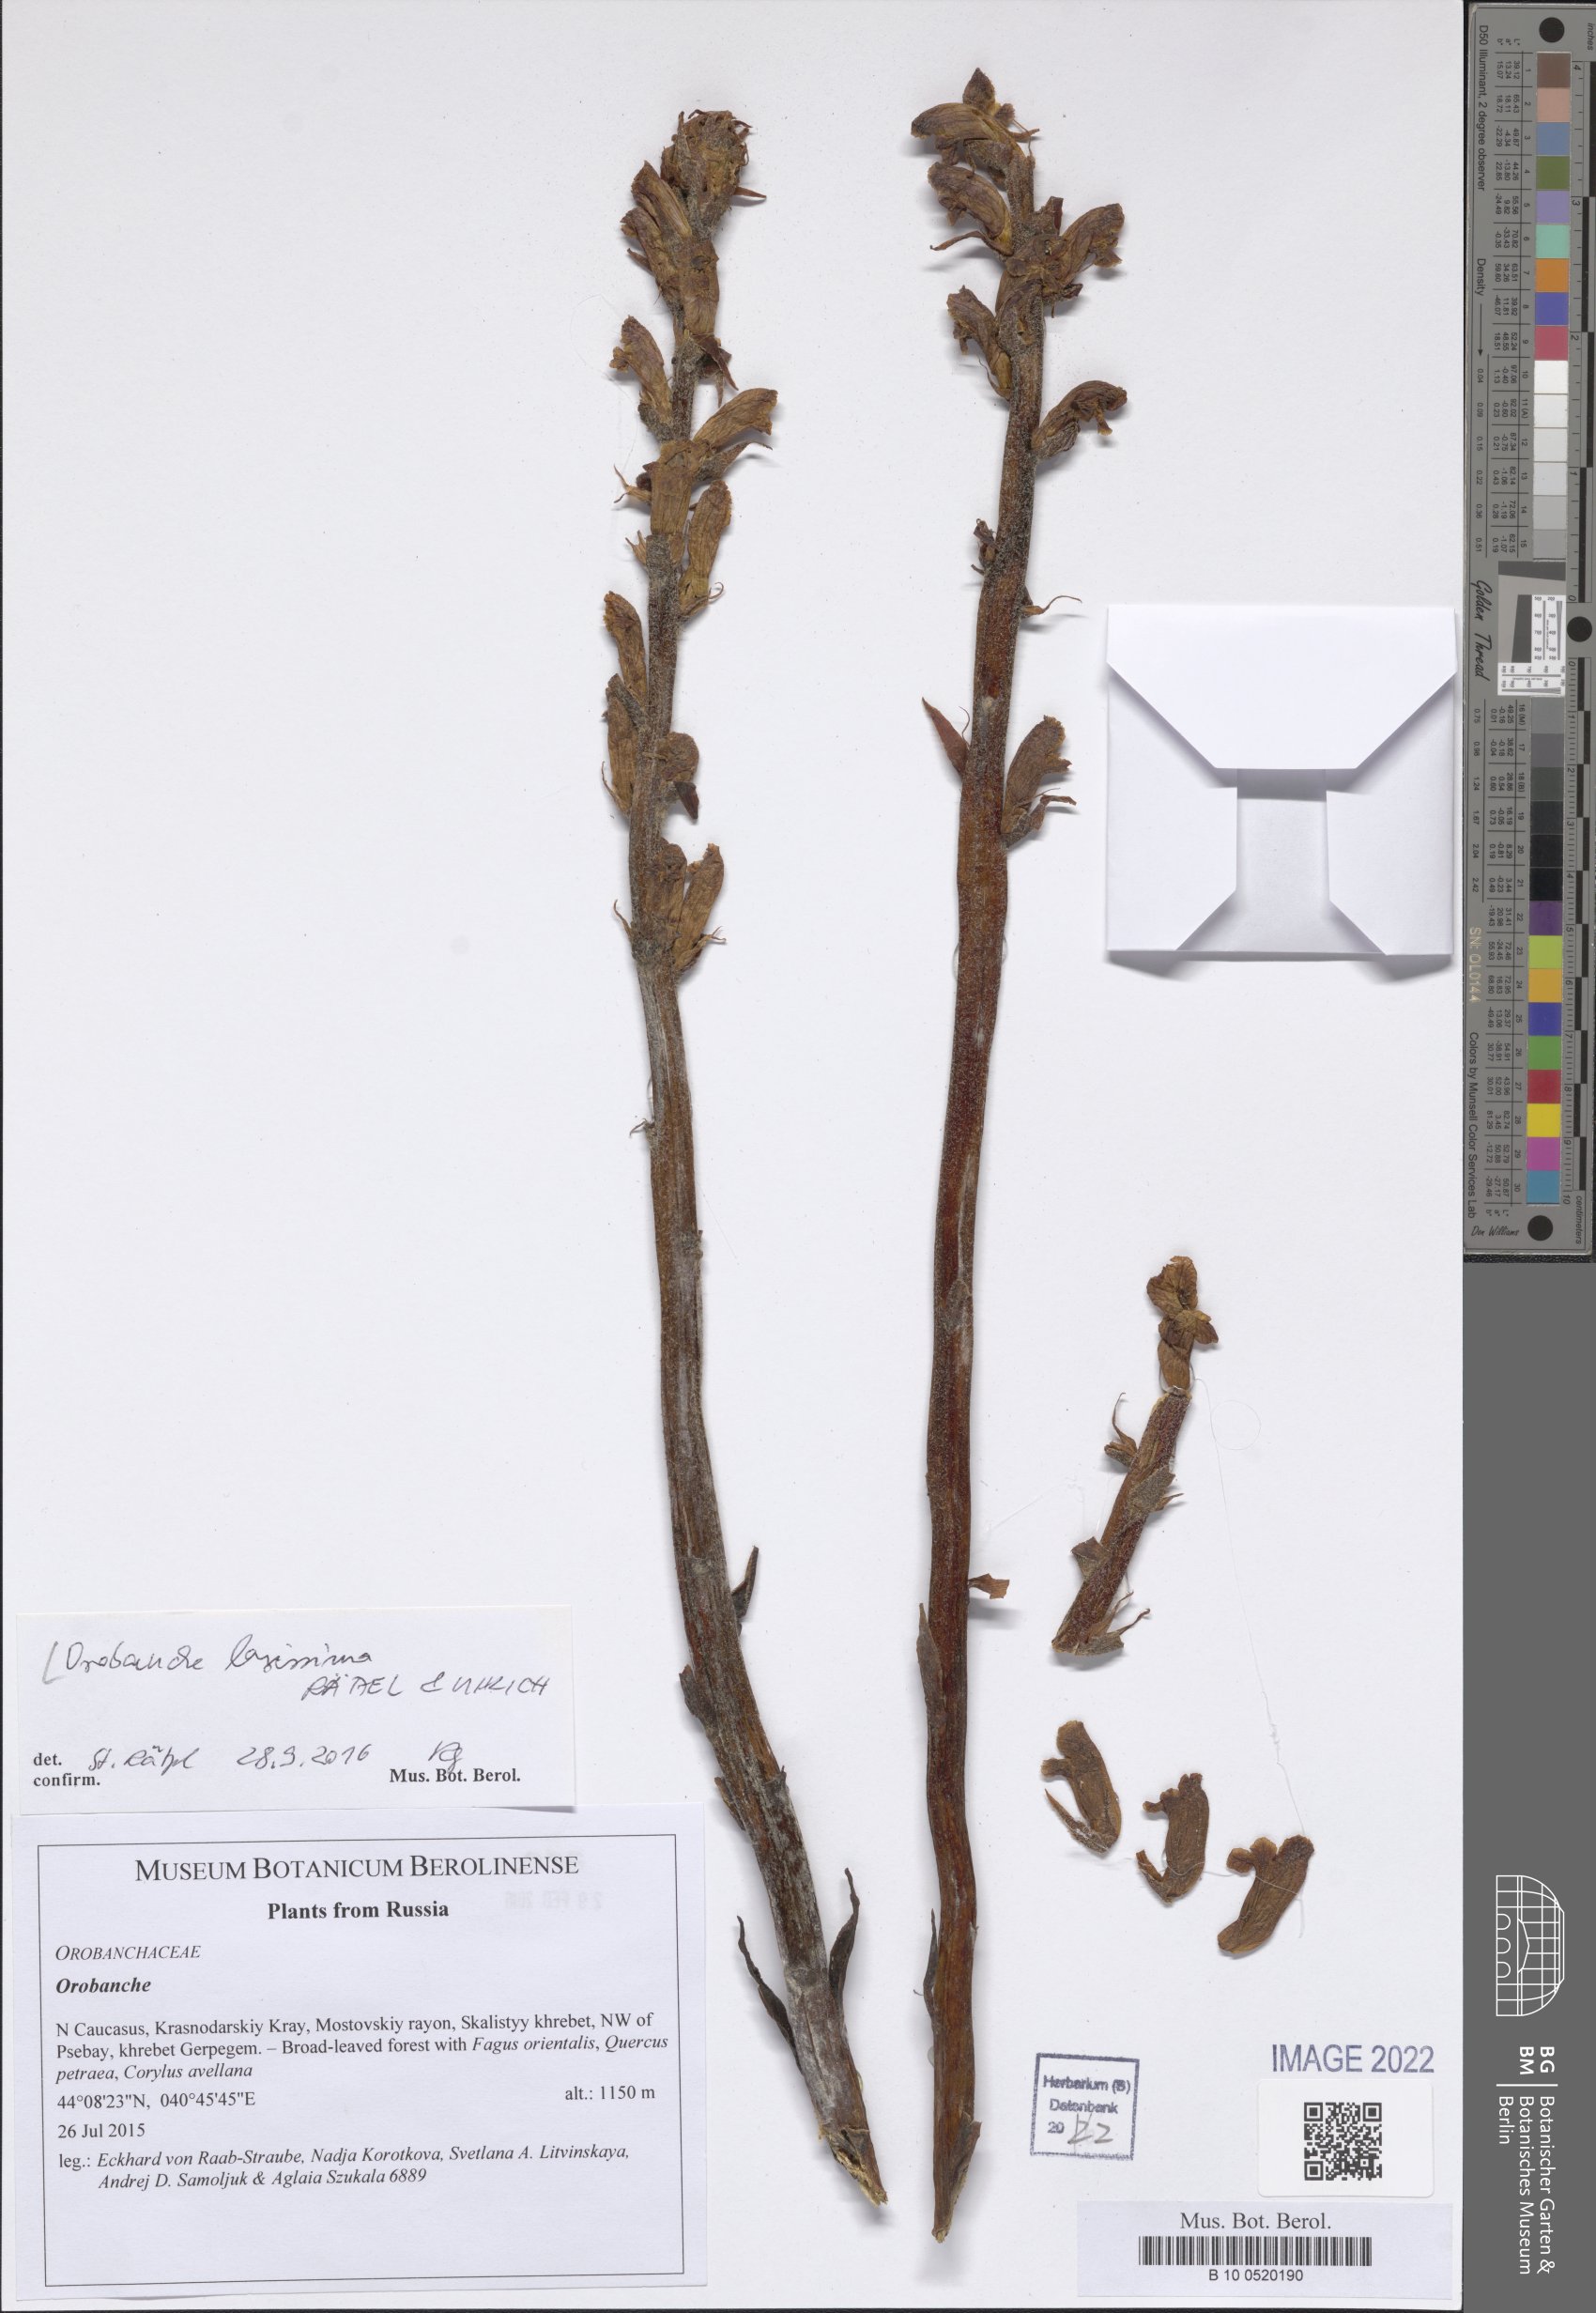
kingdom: Plantae
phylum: Tracheophyta
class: Magnoliopsida
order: Lamiales
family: Orobanchaceae
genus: Orobanche
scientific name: Orobanche laxissima
